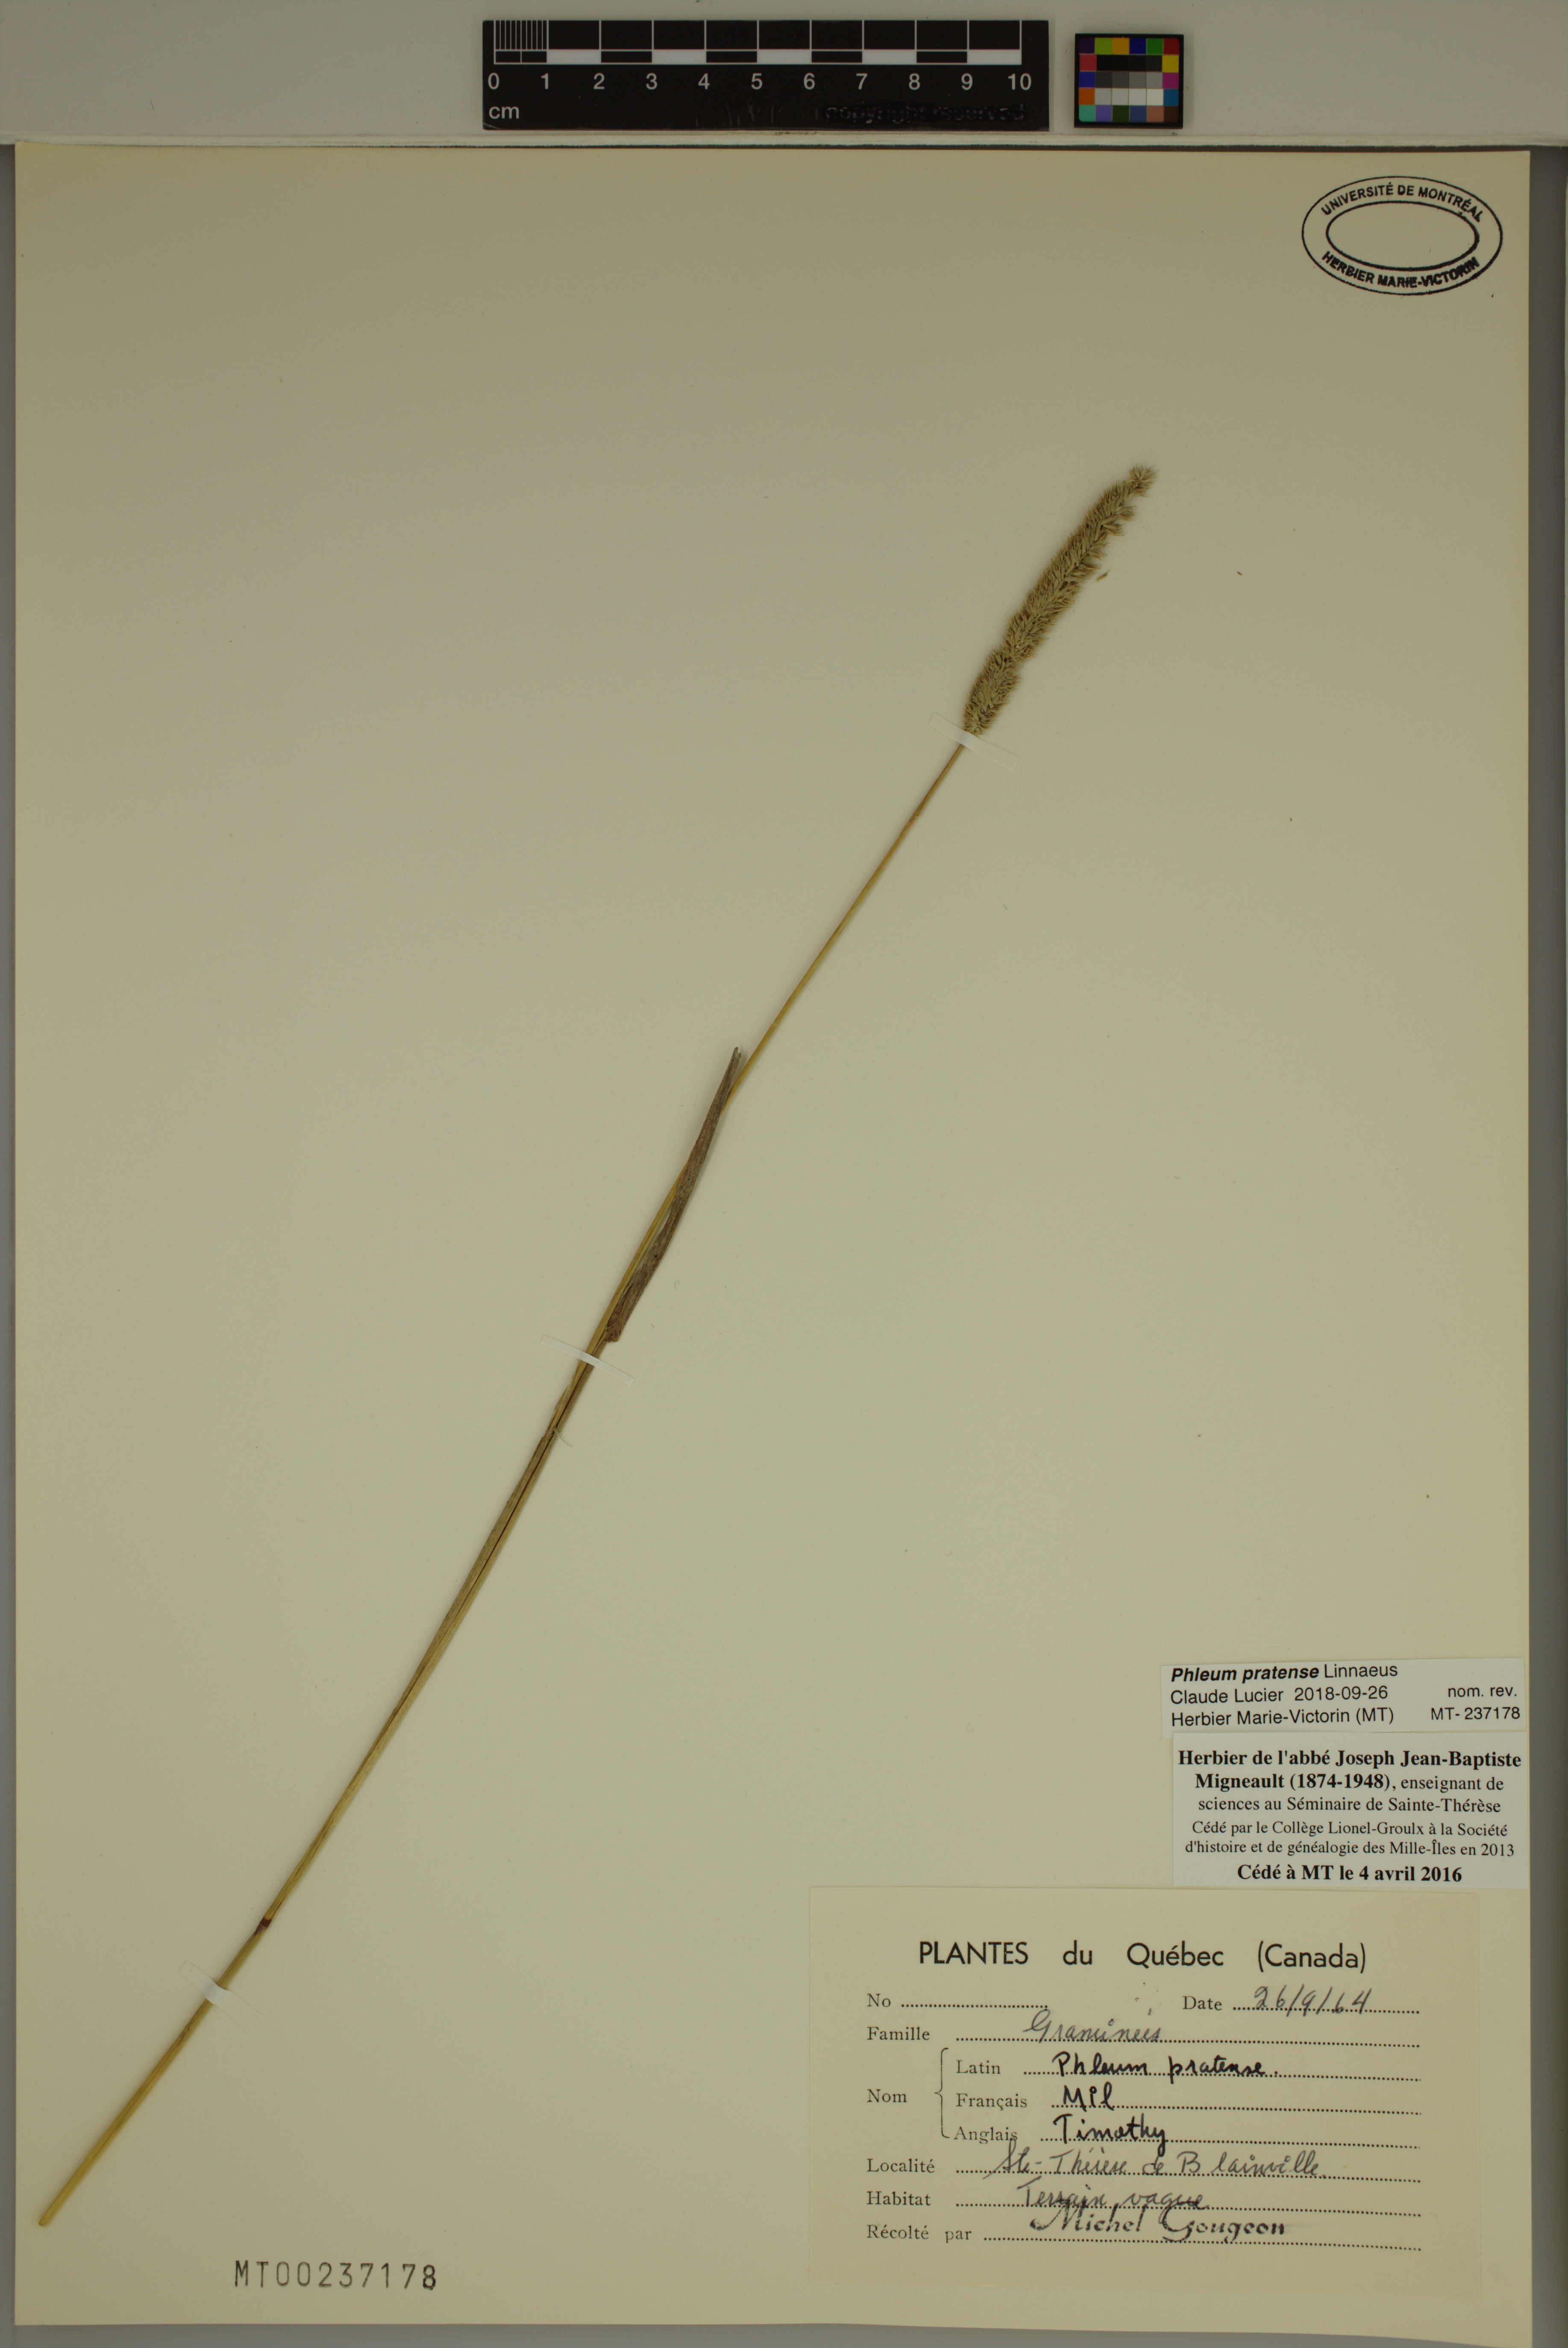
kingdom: Plantae
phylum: Tracheophyta
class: Liliopsida
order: Poales
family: Poaceae
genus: Phleum
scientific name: Phleum pratense
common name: Timothy grass
